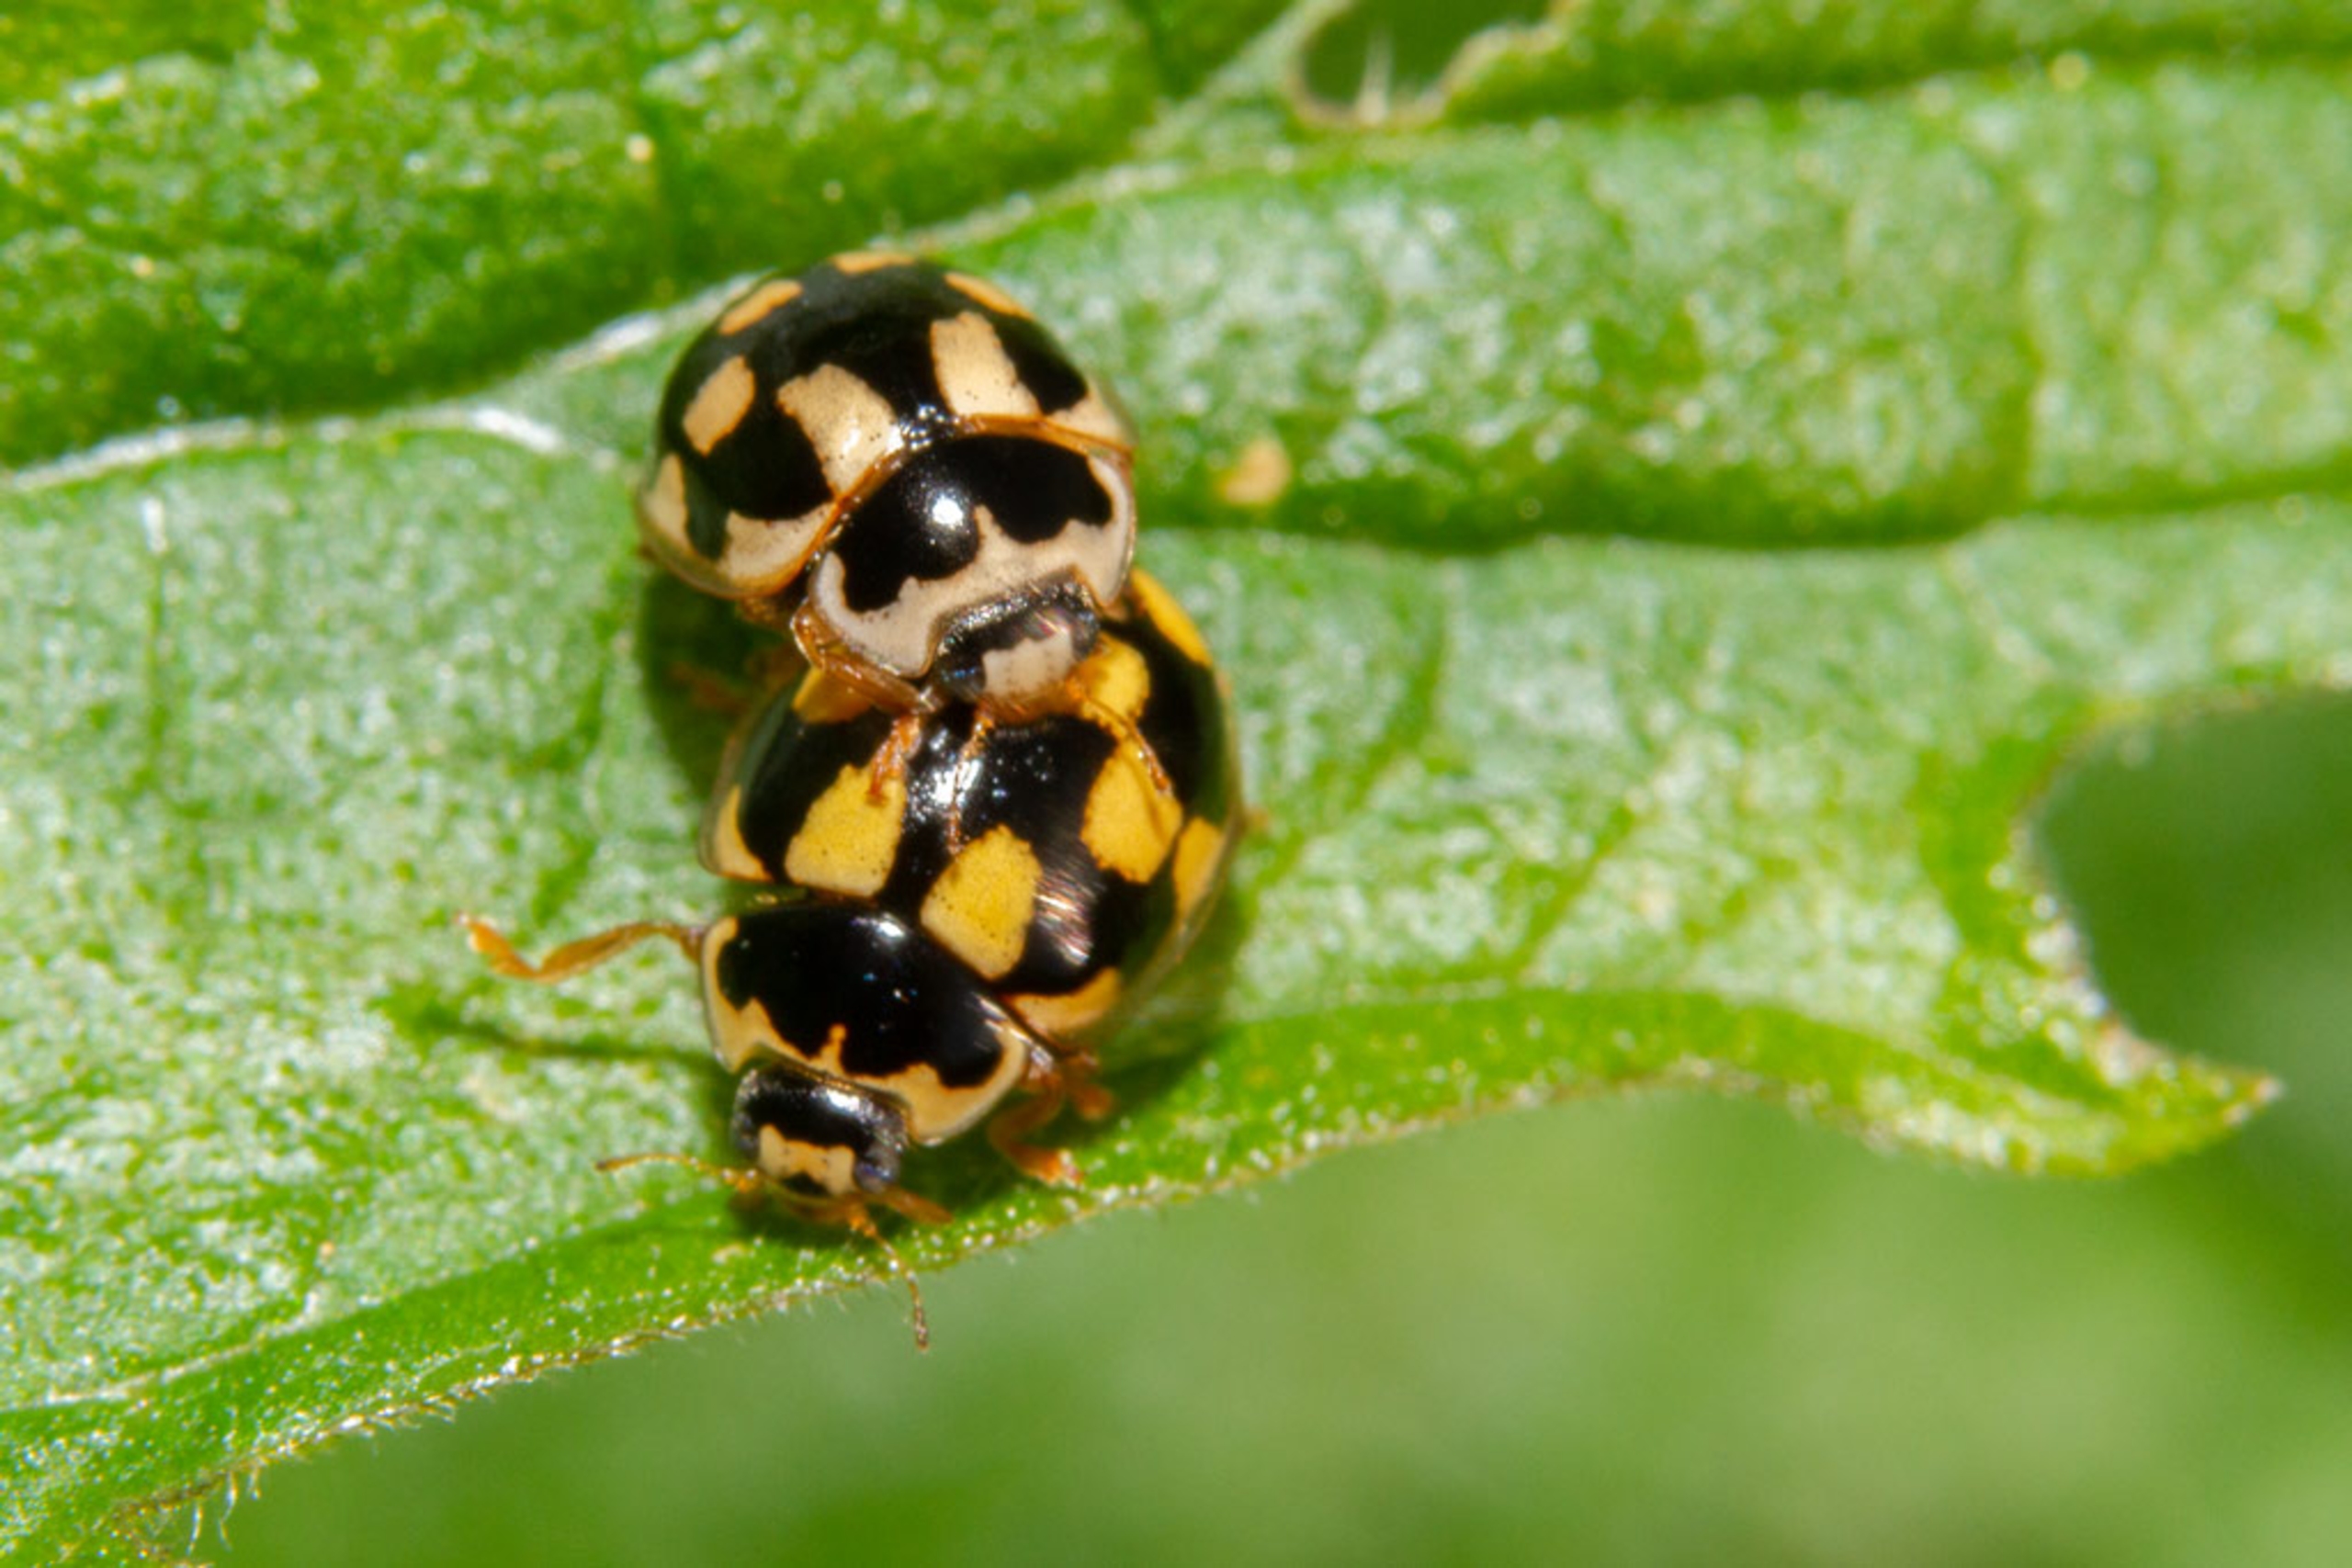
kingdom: Animalia
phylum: Arthropoda
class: Insecta
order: Coleoptera
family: Coccinellidae
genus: Propylaea
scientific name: Propylaea quatuordecimpunctata
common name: Skakbræt
